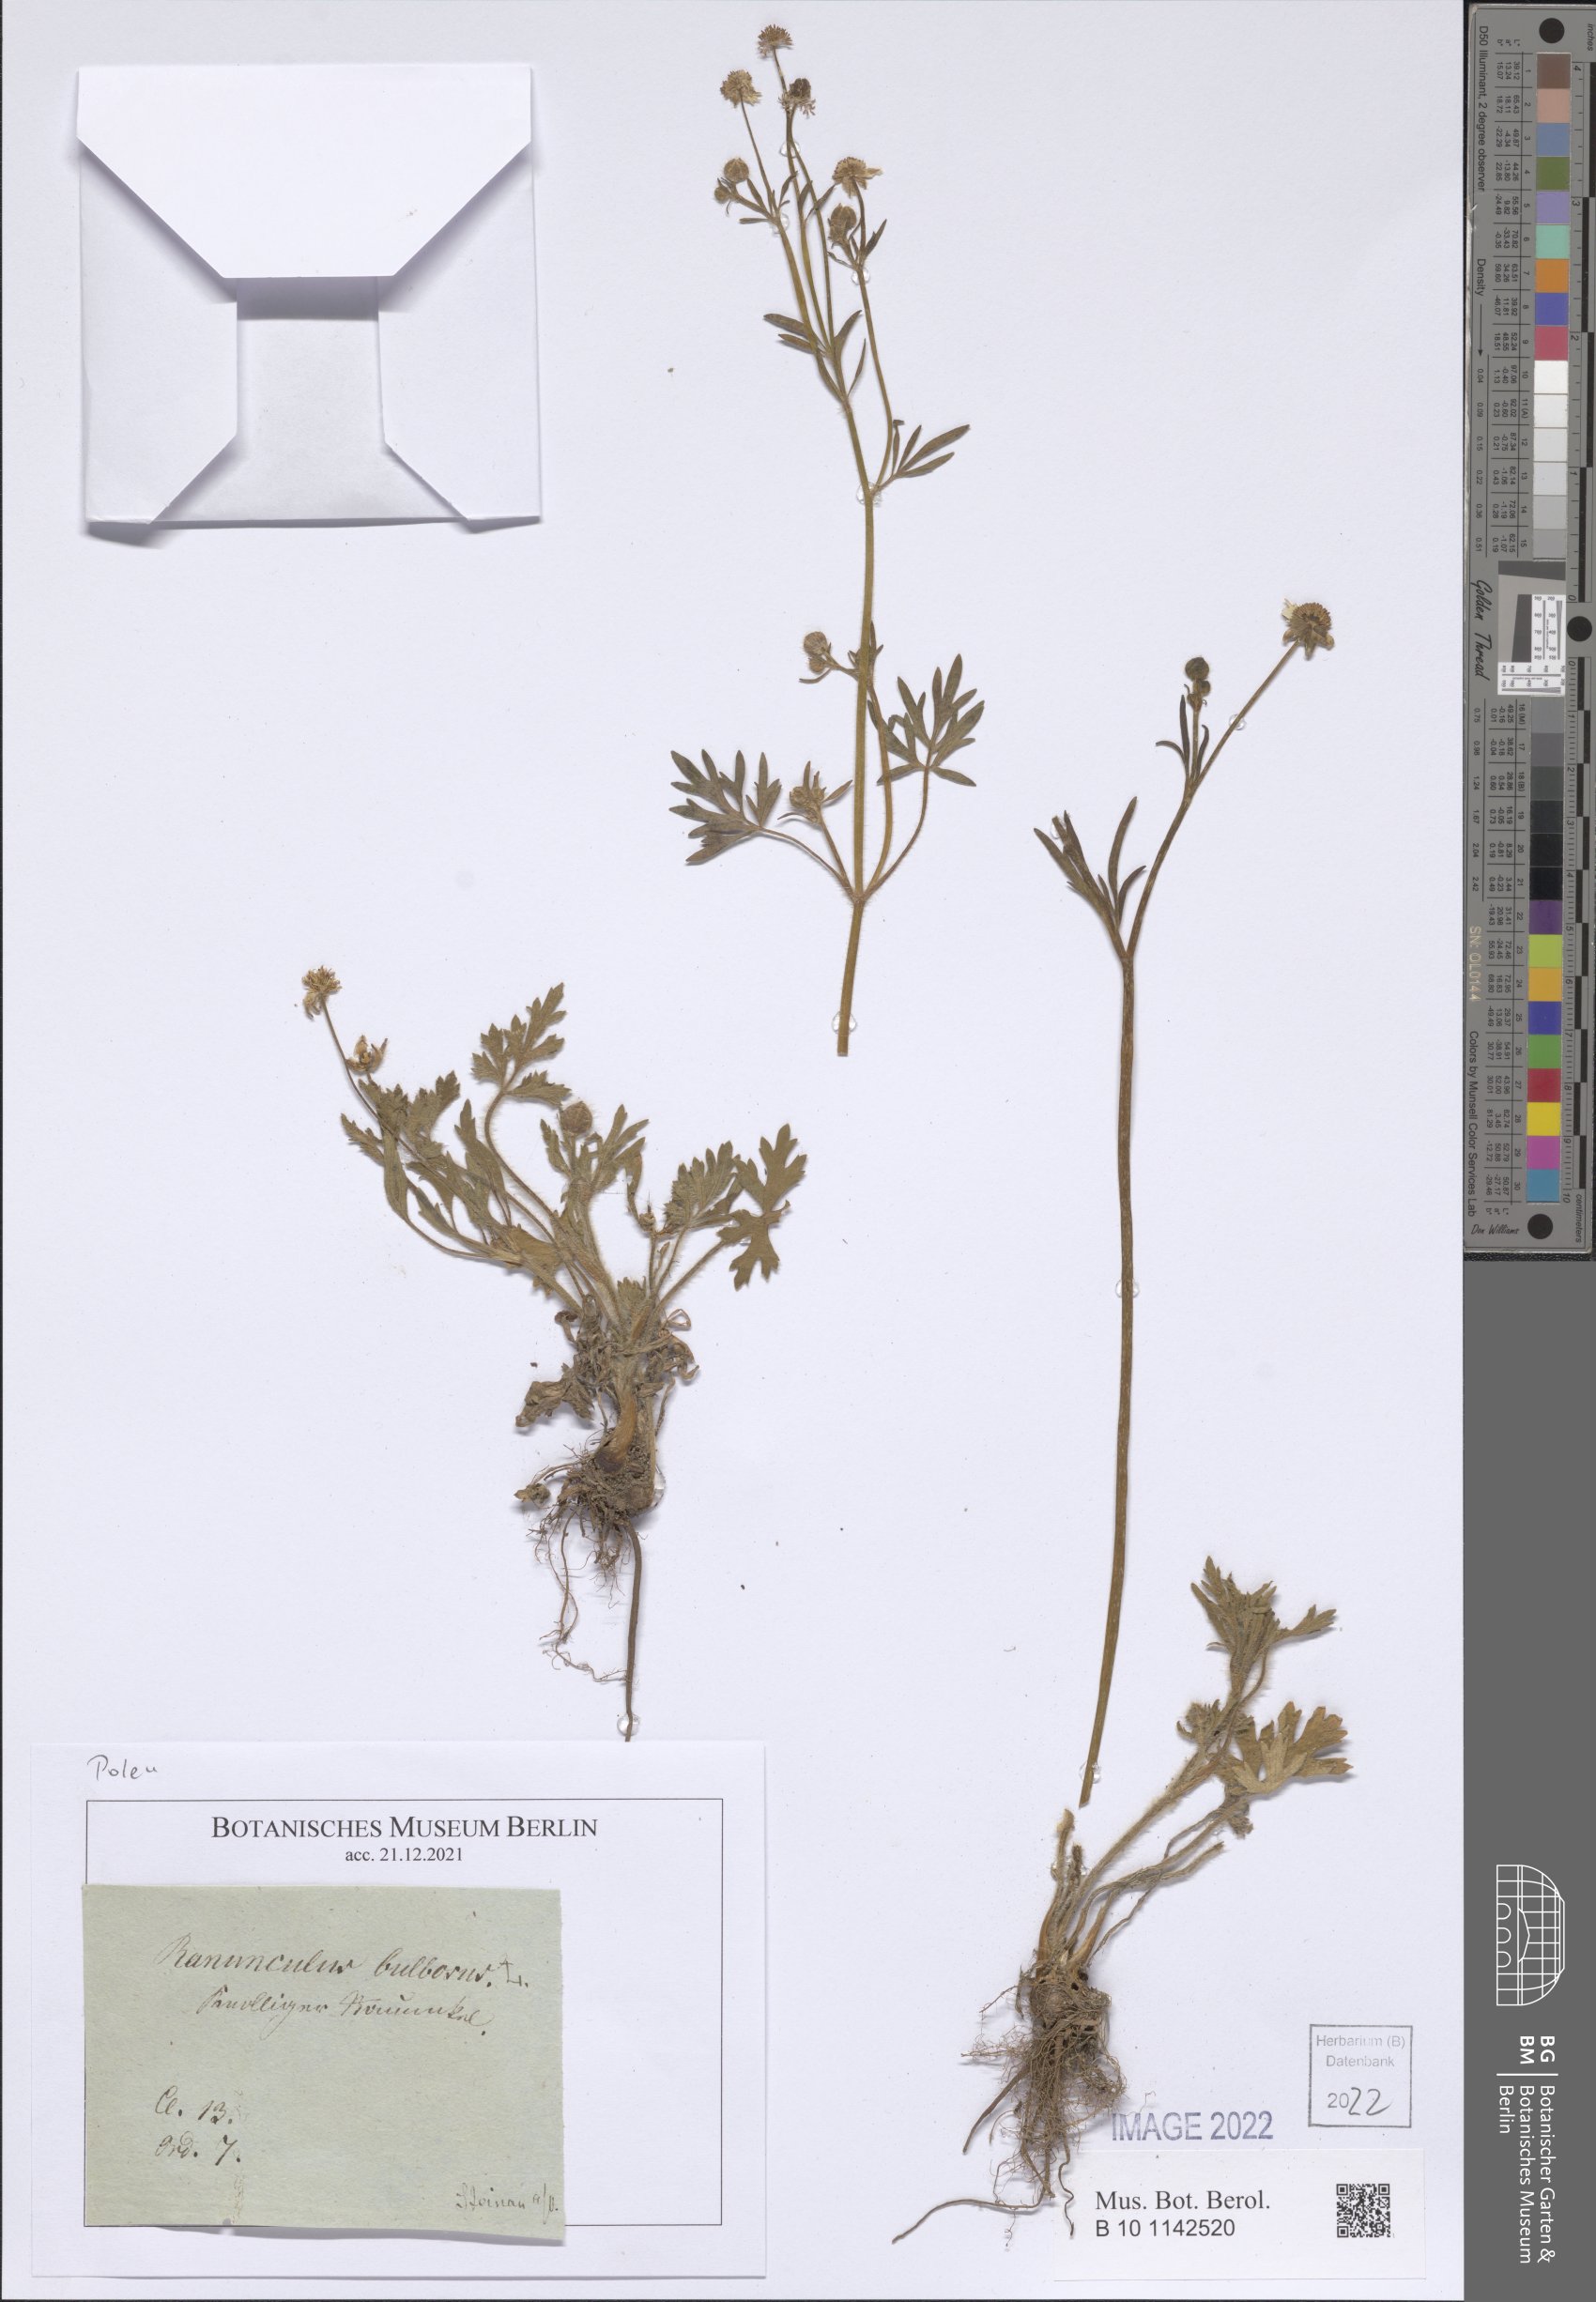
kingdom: Plantae
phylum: Tracheophyta
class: Magnoliopsida
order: Ranunculales
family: Ranunculaceae
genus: Ranunculus
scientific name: Ranunculus bulbosus
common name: Bulbous buttercup
